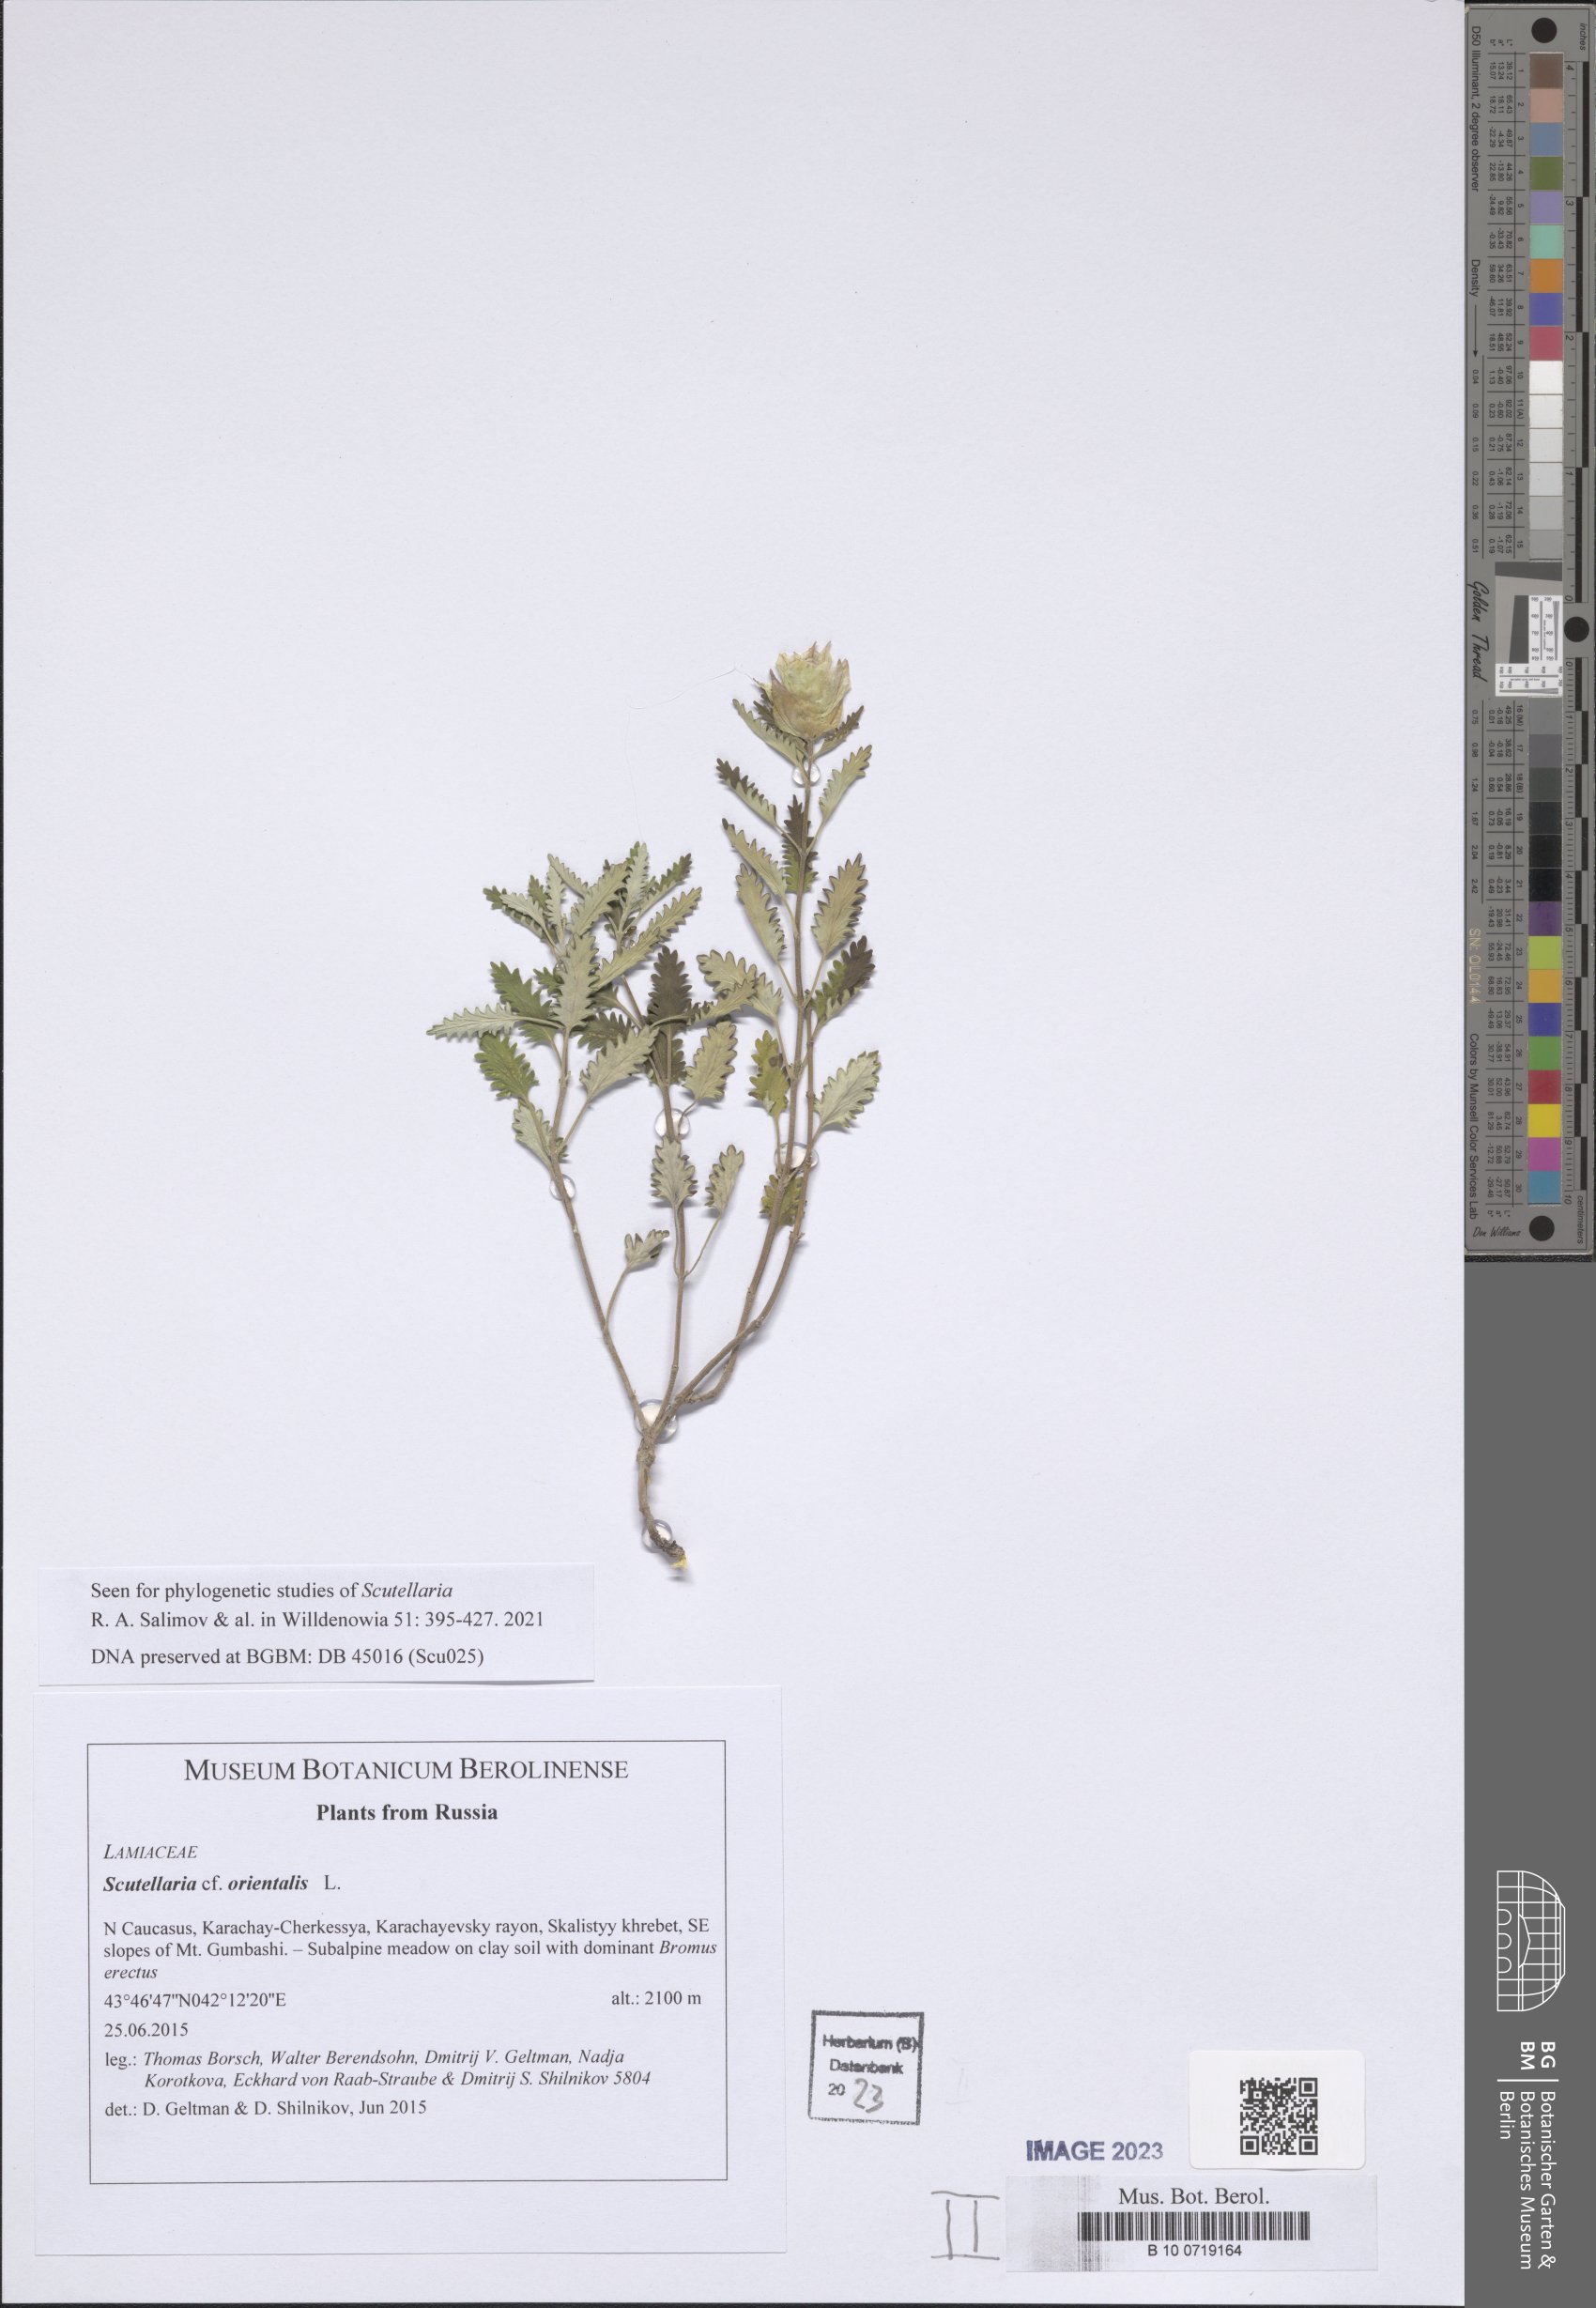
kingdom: Plantae
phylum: Tracheophyta
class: Magnoliopsida
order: Lamiales
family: Lamiaceae
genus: Scutellaria
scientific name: Scutellaria orientalis
